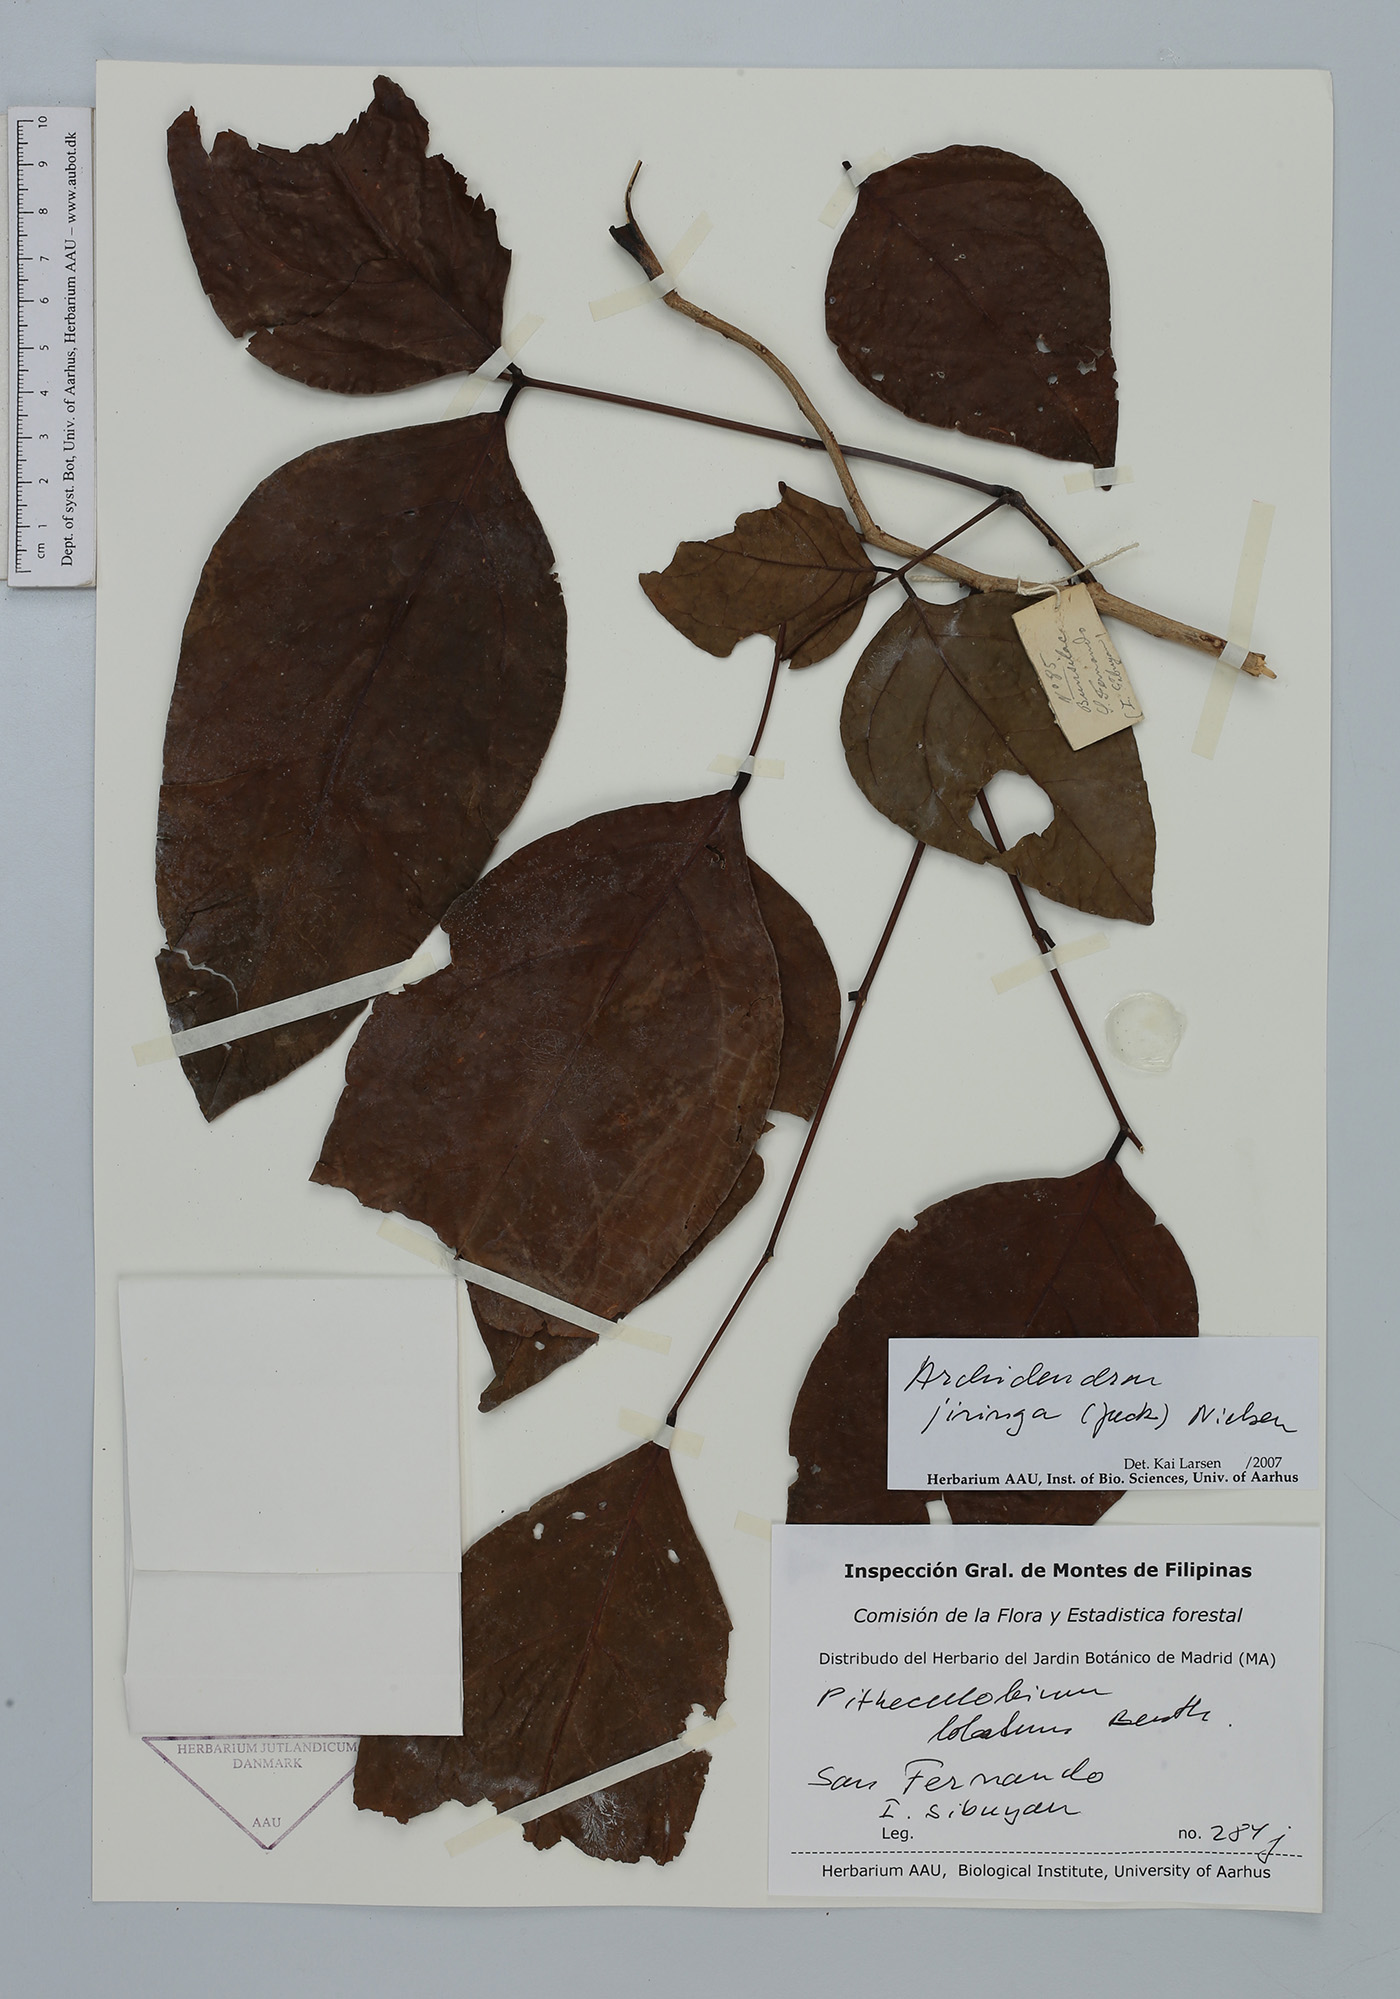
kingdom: Plantae
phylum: Tracheophyta
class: Magnoliopsida
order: Fabales
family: Fabaceae
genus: Archidendron
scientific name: Archidendron jiringa
